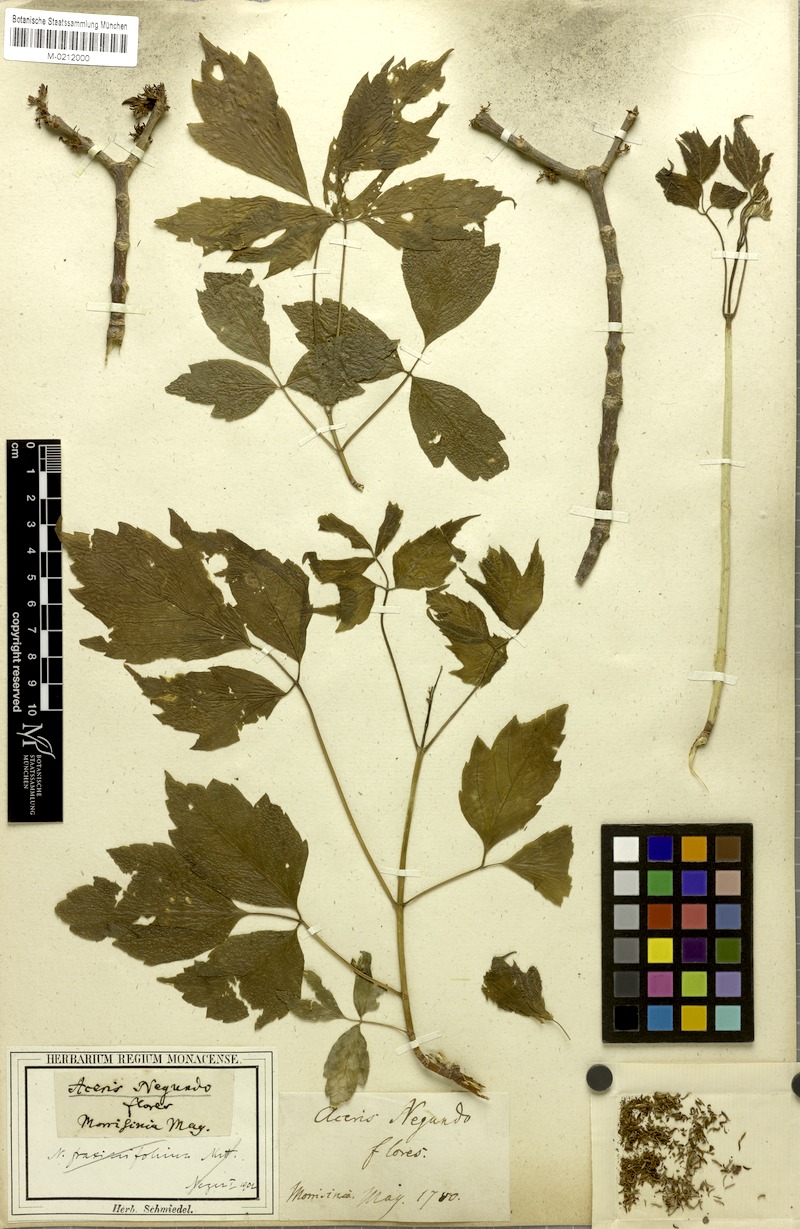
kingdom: Plantae
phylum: Tracheophyta
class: Magnoliopsida
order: Sapindales
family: Sapindaceae
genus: Acer
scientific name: Acer negundo
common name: Ashleaf maple
